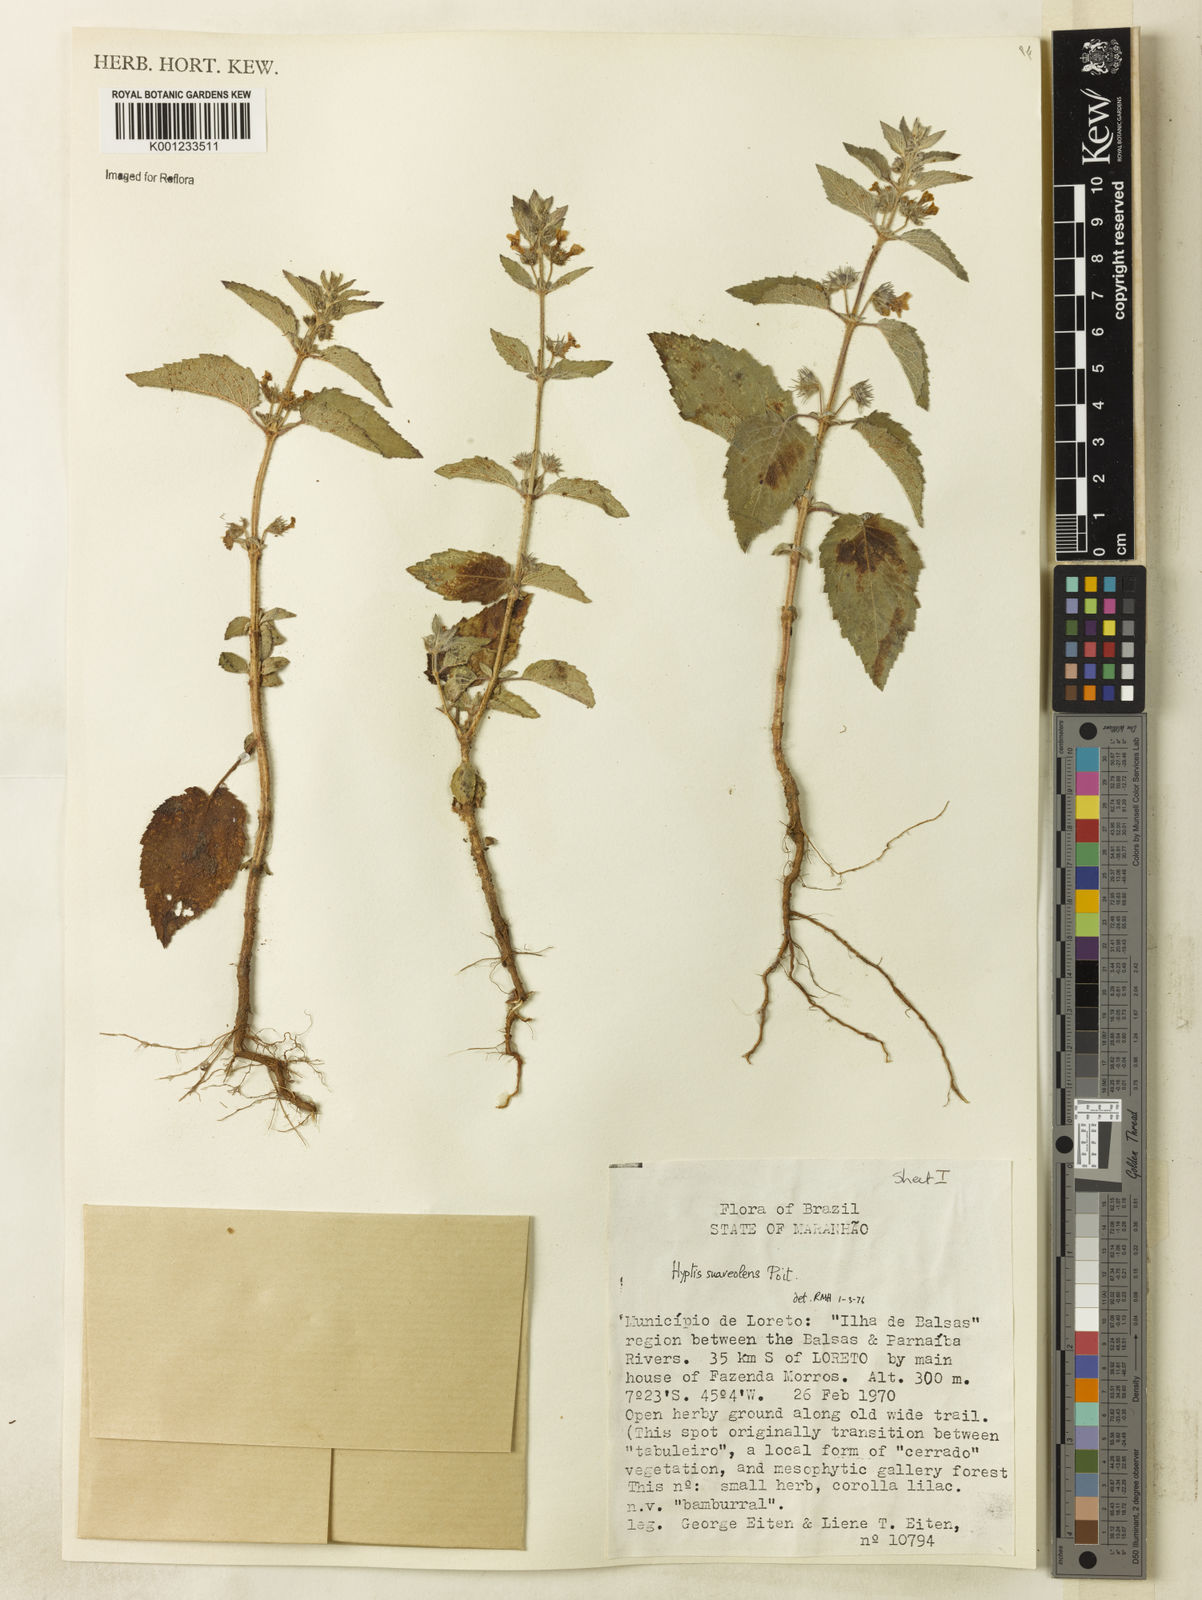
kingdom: Plantae
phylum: Tracheophyta
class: Magnoliopsida
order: Lamiales
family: Lamiaceae
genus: Mesosphaerum
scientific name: Mesosphaerum suaveolens
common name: Pignut
